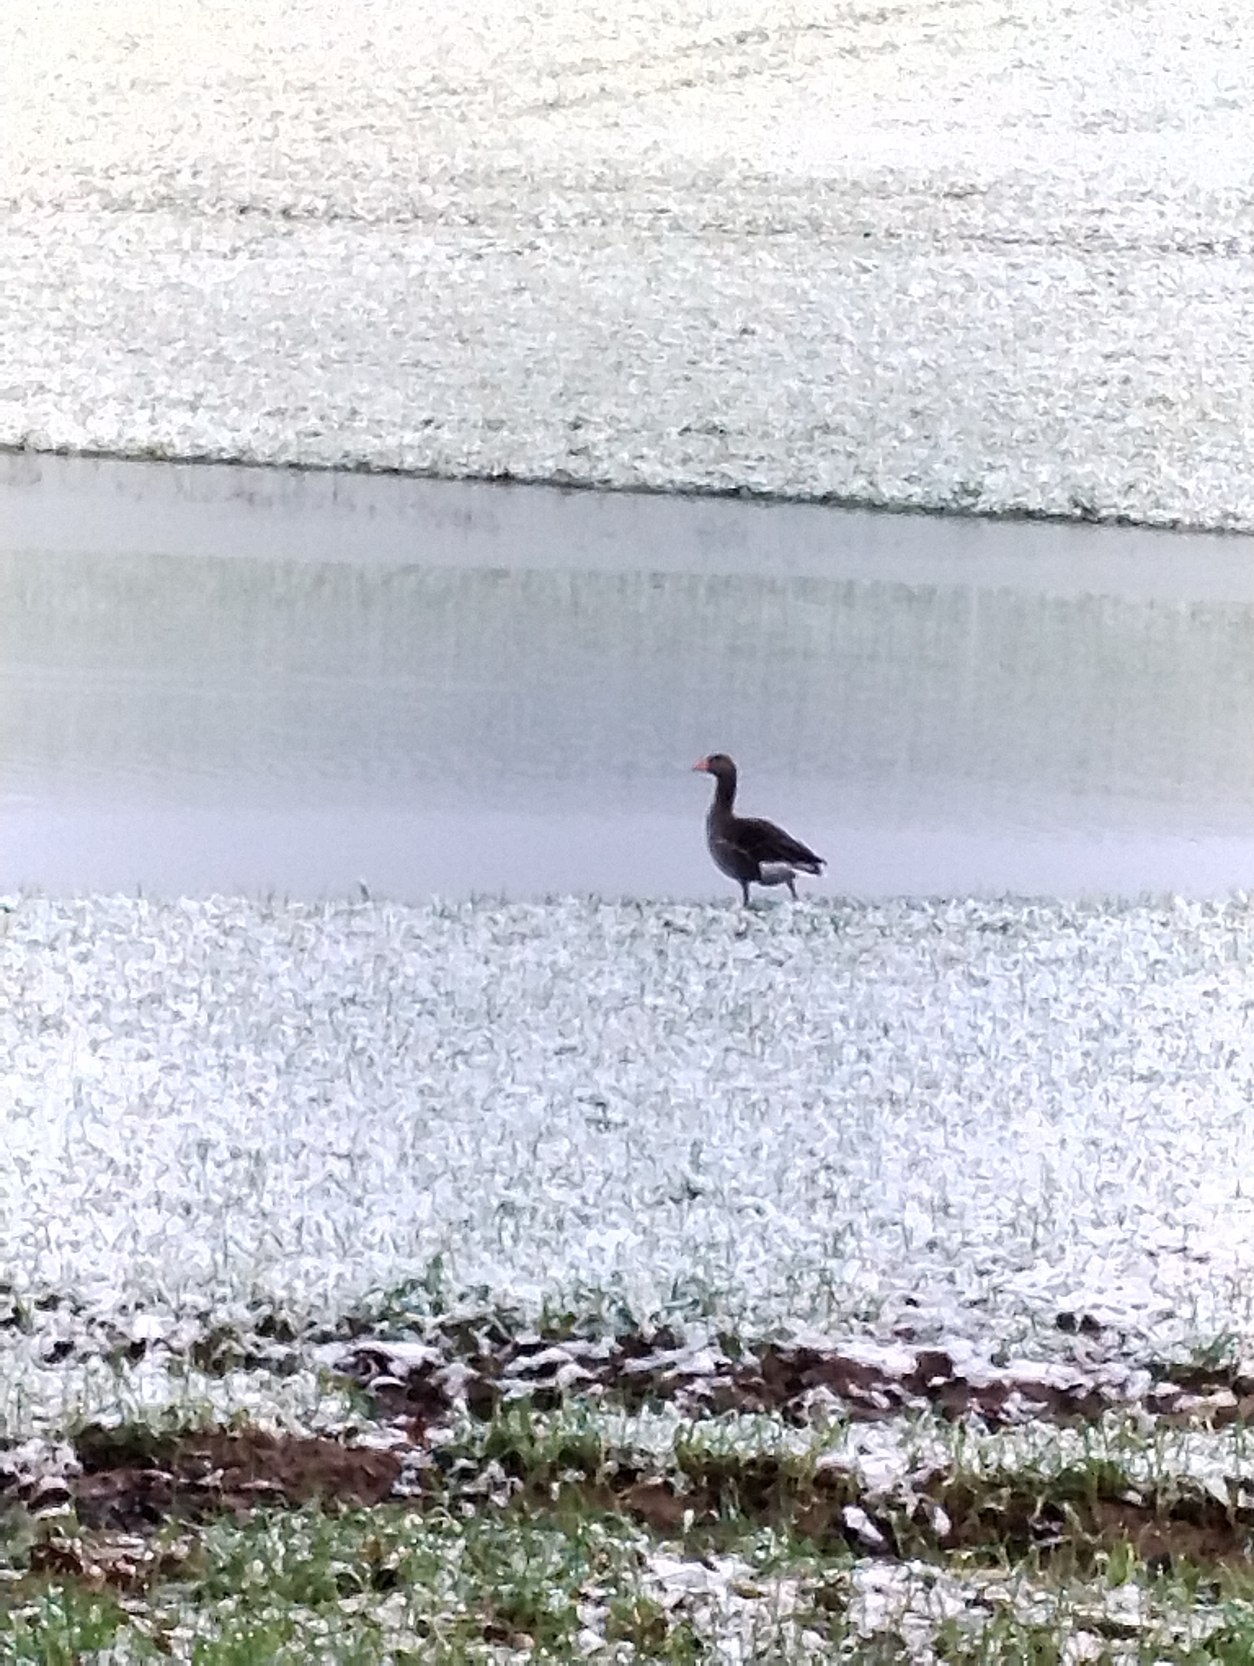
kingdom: Animalia
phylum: Chordata
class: Aves
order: Anseriformes
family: Anatidae
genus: Anser
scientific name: Anser anser
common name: Grågås
